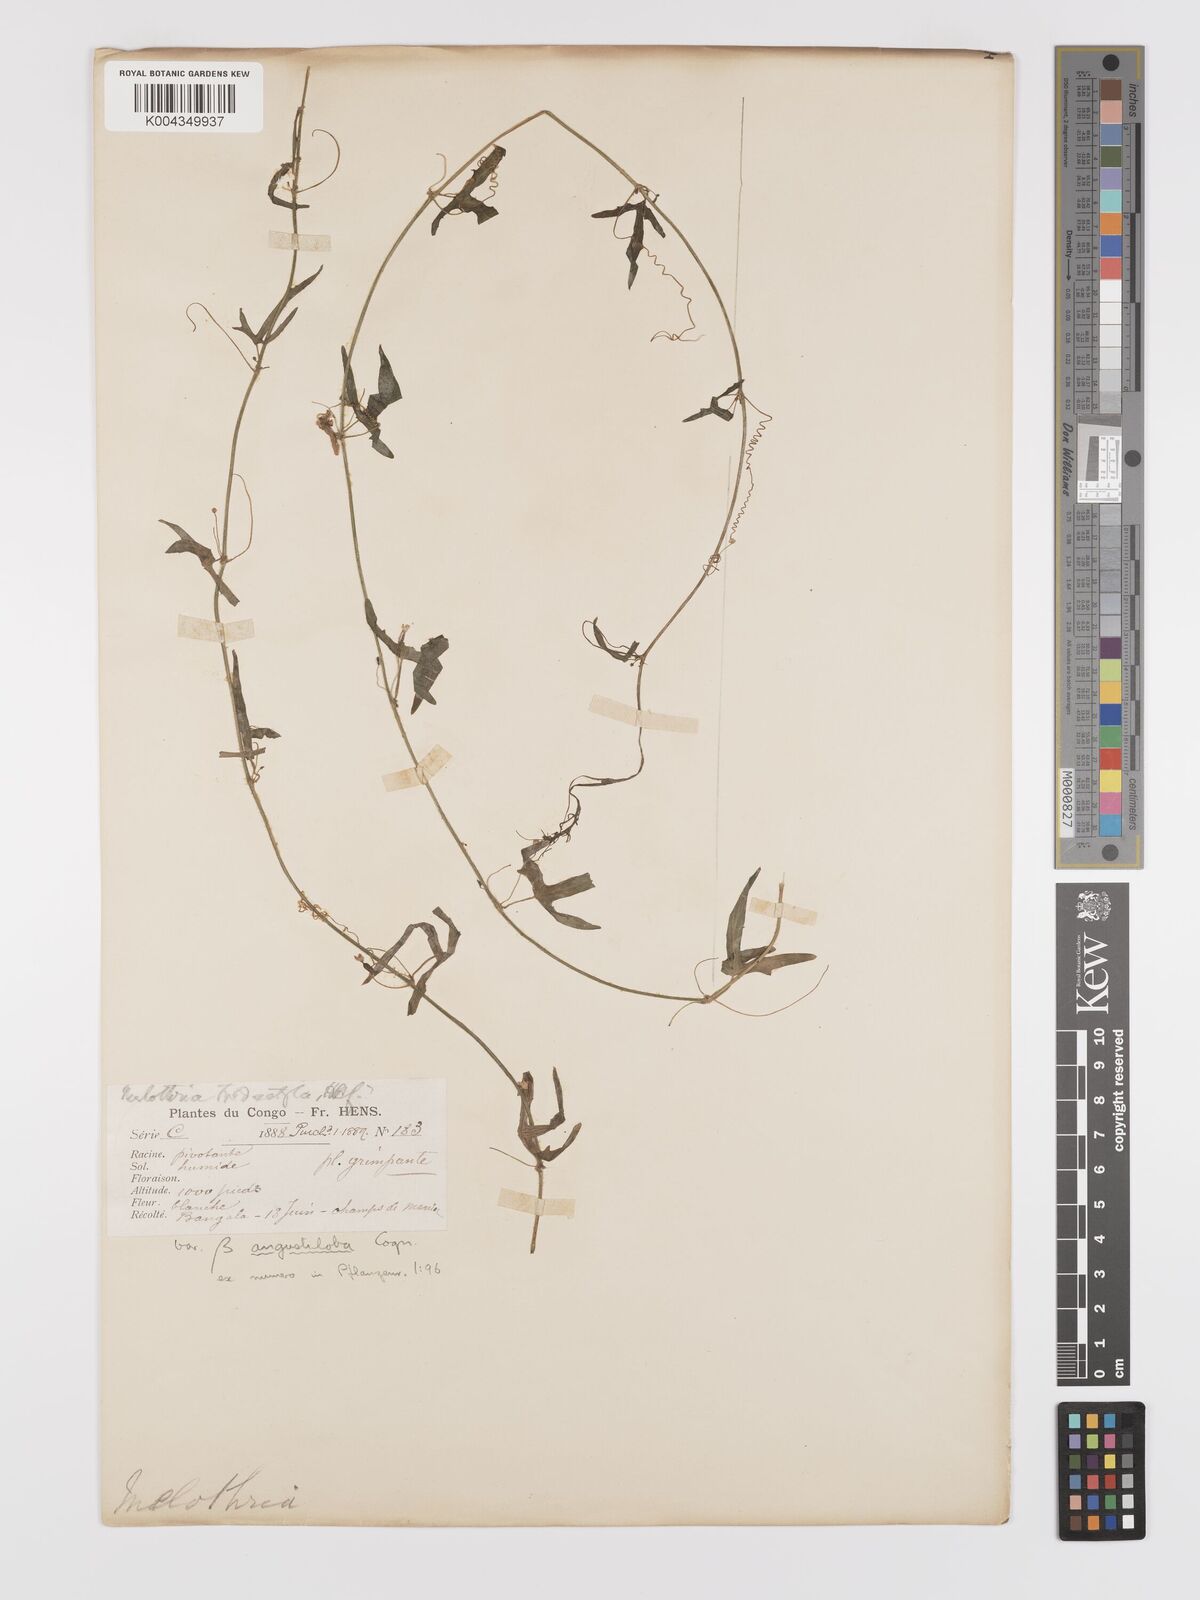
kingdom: Plantae
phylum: Tracheophyta
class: Magnoliopsida
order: Cucurbitales
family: Cucurbitaceae
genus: Zehneria
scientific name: Zehneria thwaitesii
